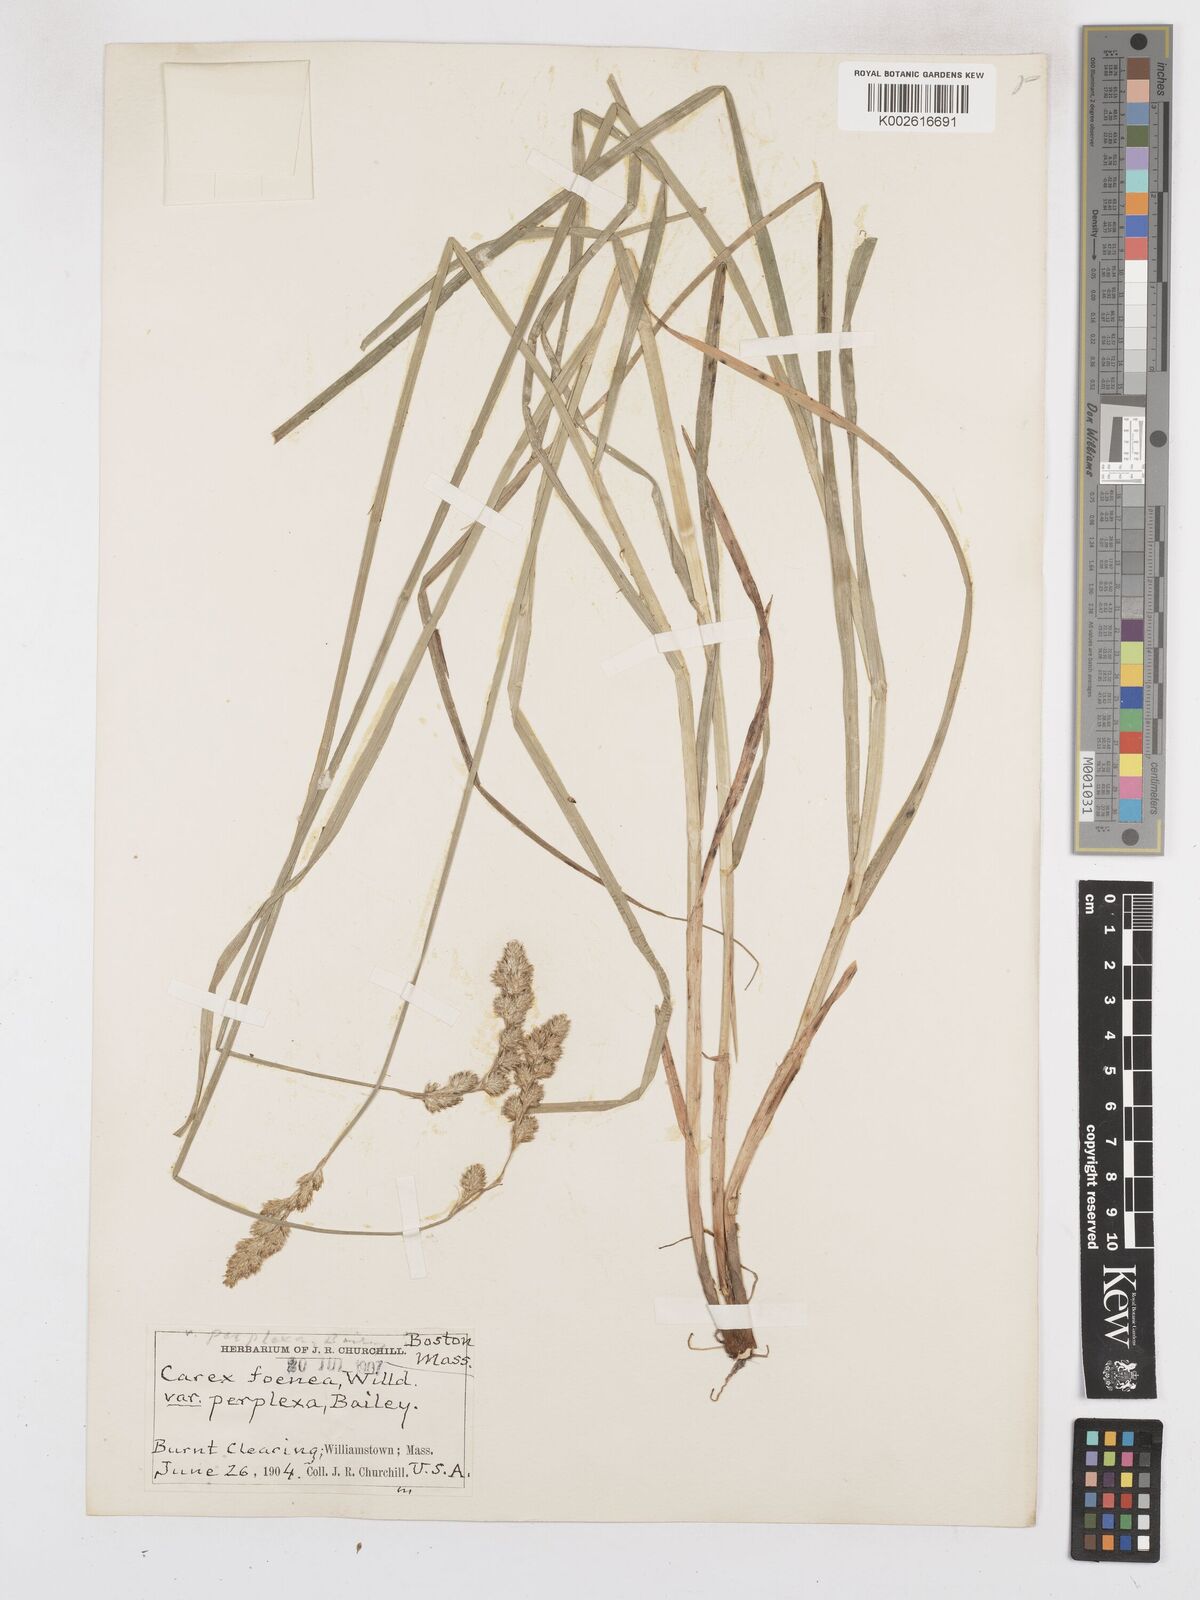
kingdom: Plantae
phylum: Tracheophyta
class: Liliopsida
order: Poales
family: Cyperaceae
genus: Carex
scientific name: Carex argyrantha
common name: Silvery-flowered sedge
